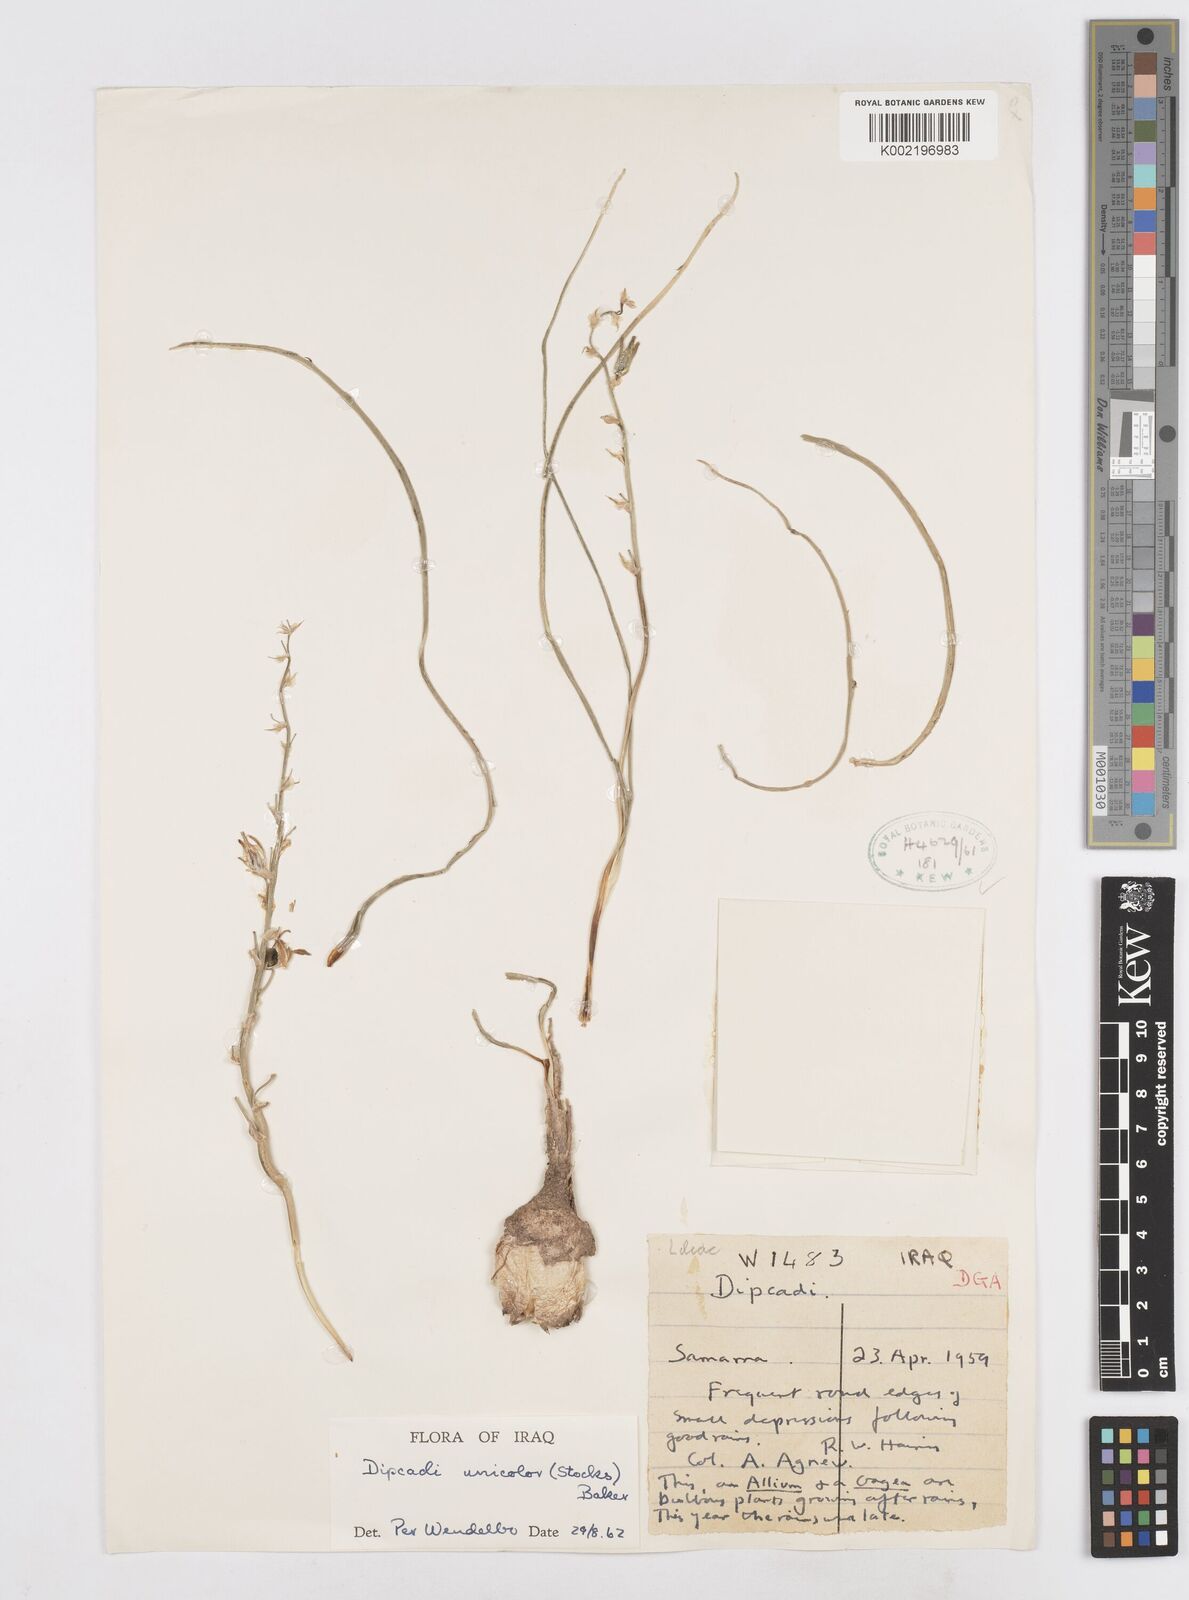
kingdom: Plantae
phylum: Tracheophyta
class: Liliopsida
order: Asparagales
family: Asparagaceae
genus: Dipcadi
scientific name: Dipcadi erythraeum
